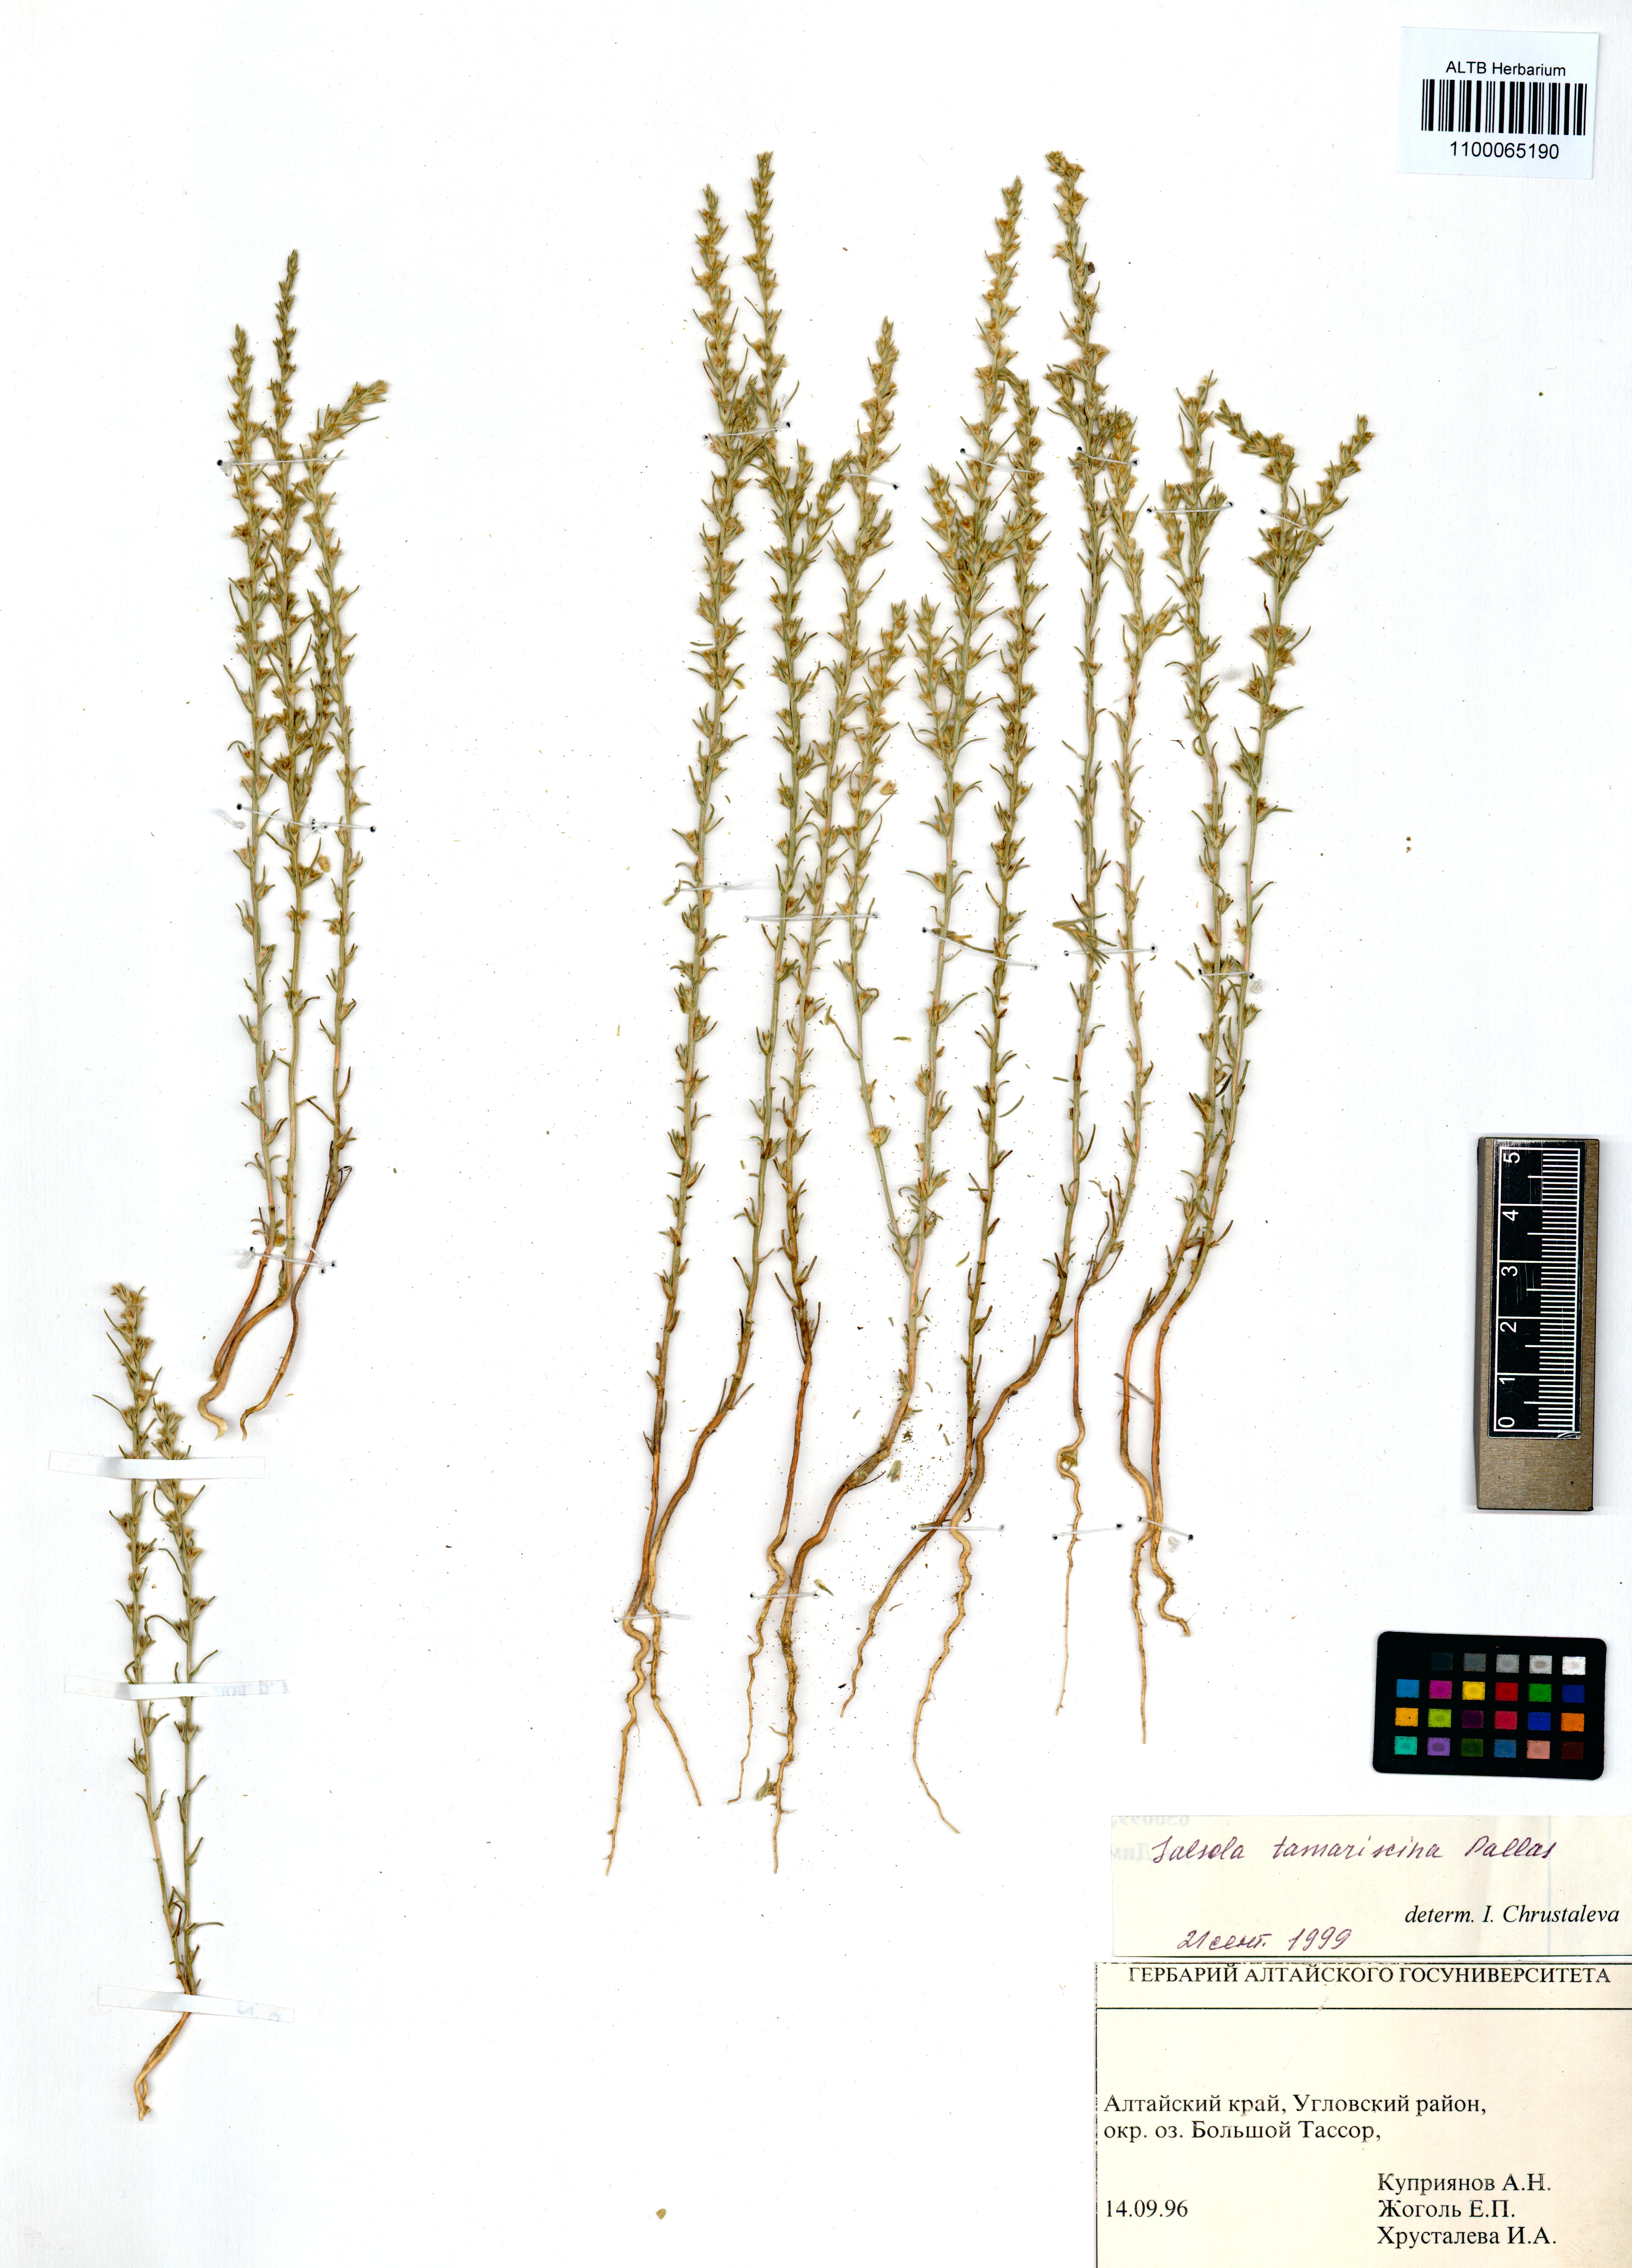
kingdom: Plantae
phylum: Tracheophyta
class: Magnoliopsida
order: Caryophyllales
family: Amaranthaceae
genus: Salsola
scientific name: Salsola tamariscina
